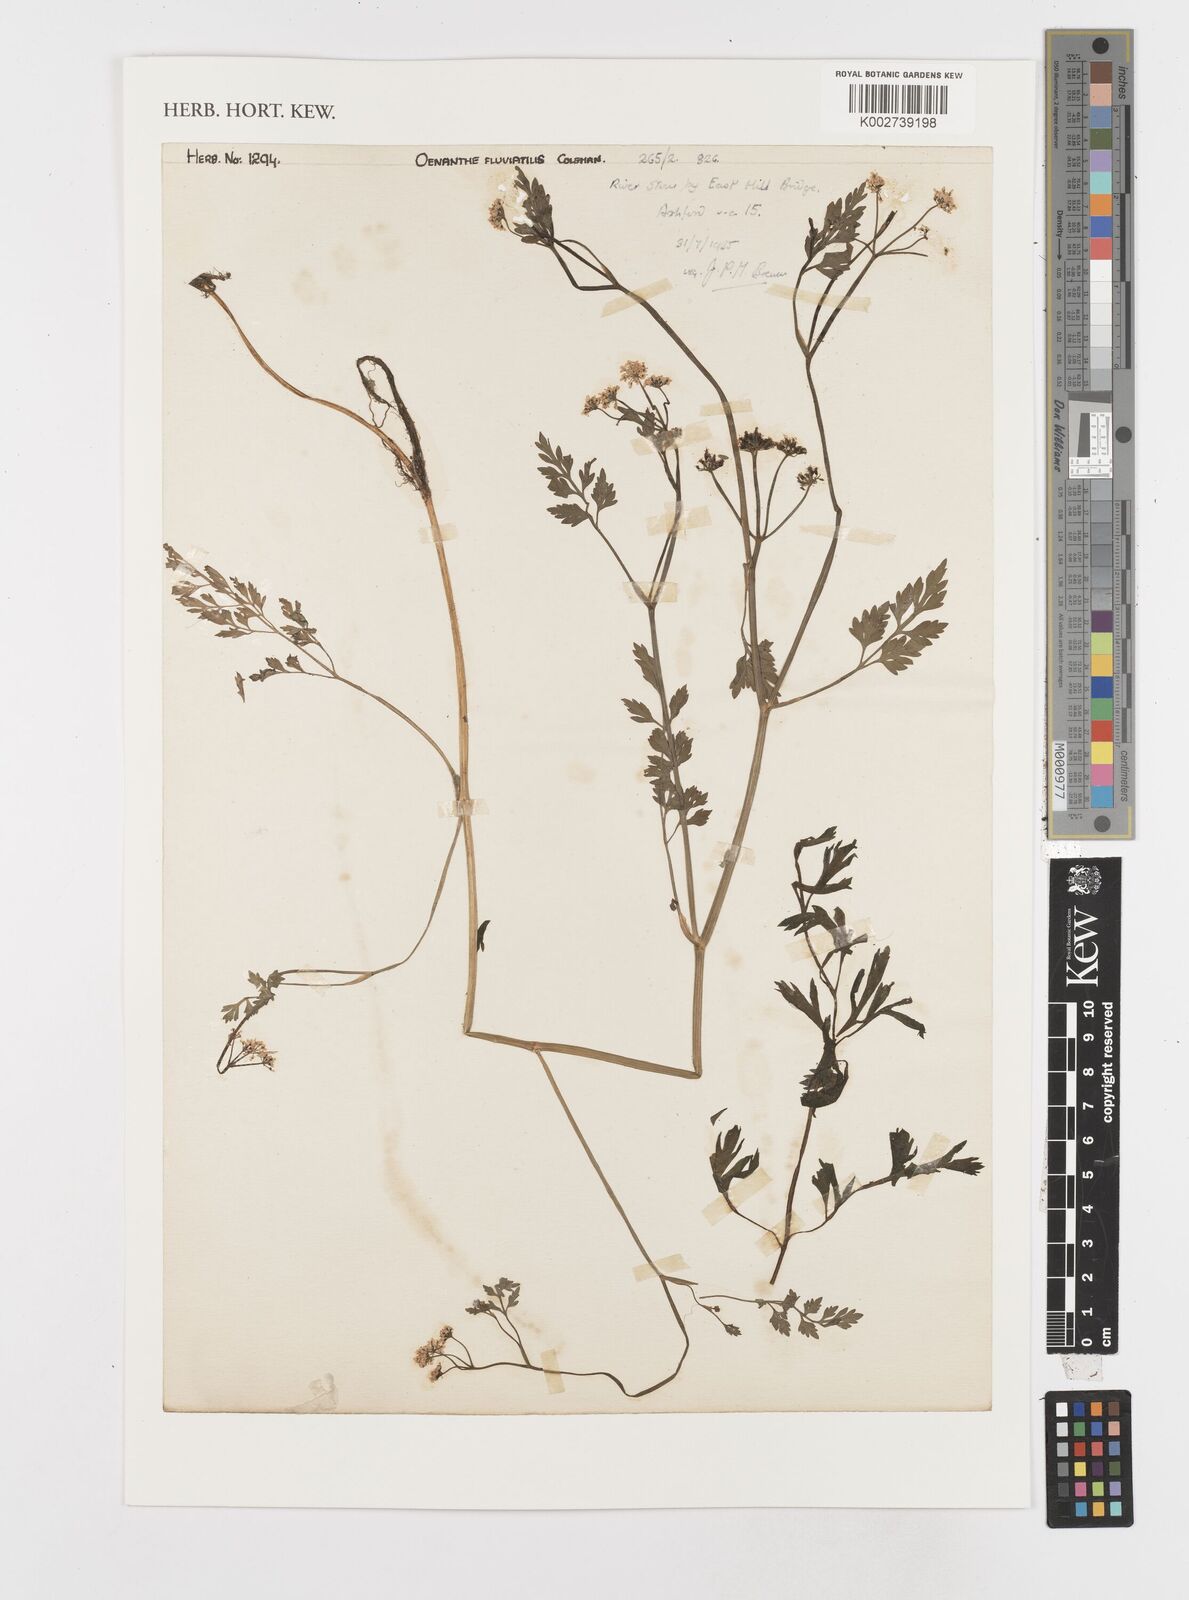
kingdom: Plantae
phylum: Tracheophyta
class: Magnoliopsida
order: Apiales
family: Apiaceae
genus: Oenanthe
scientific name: Oenanthe fluviatilis
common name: River water-dropwort
